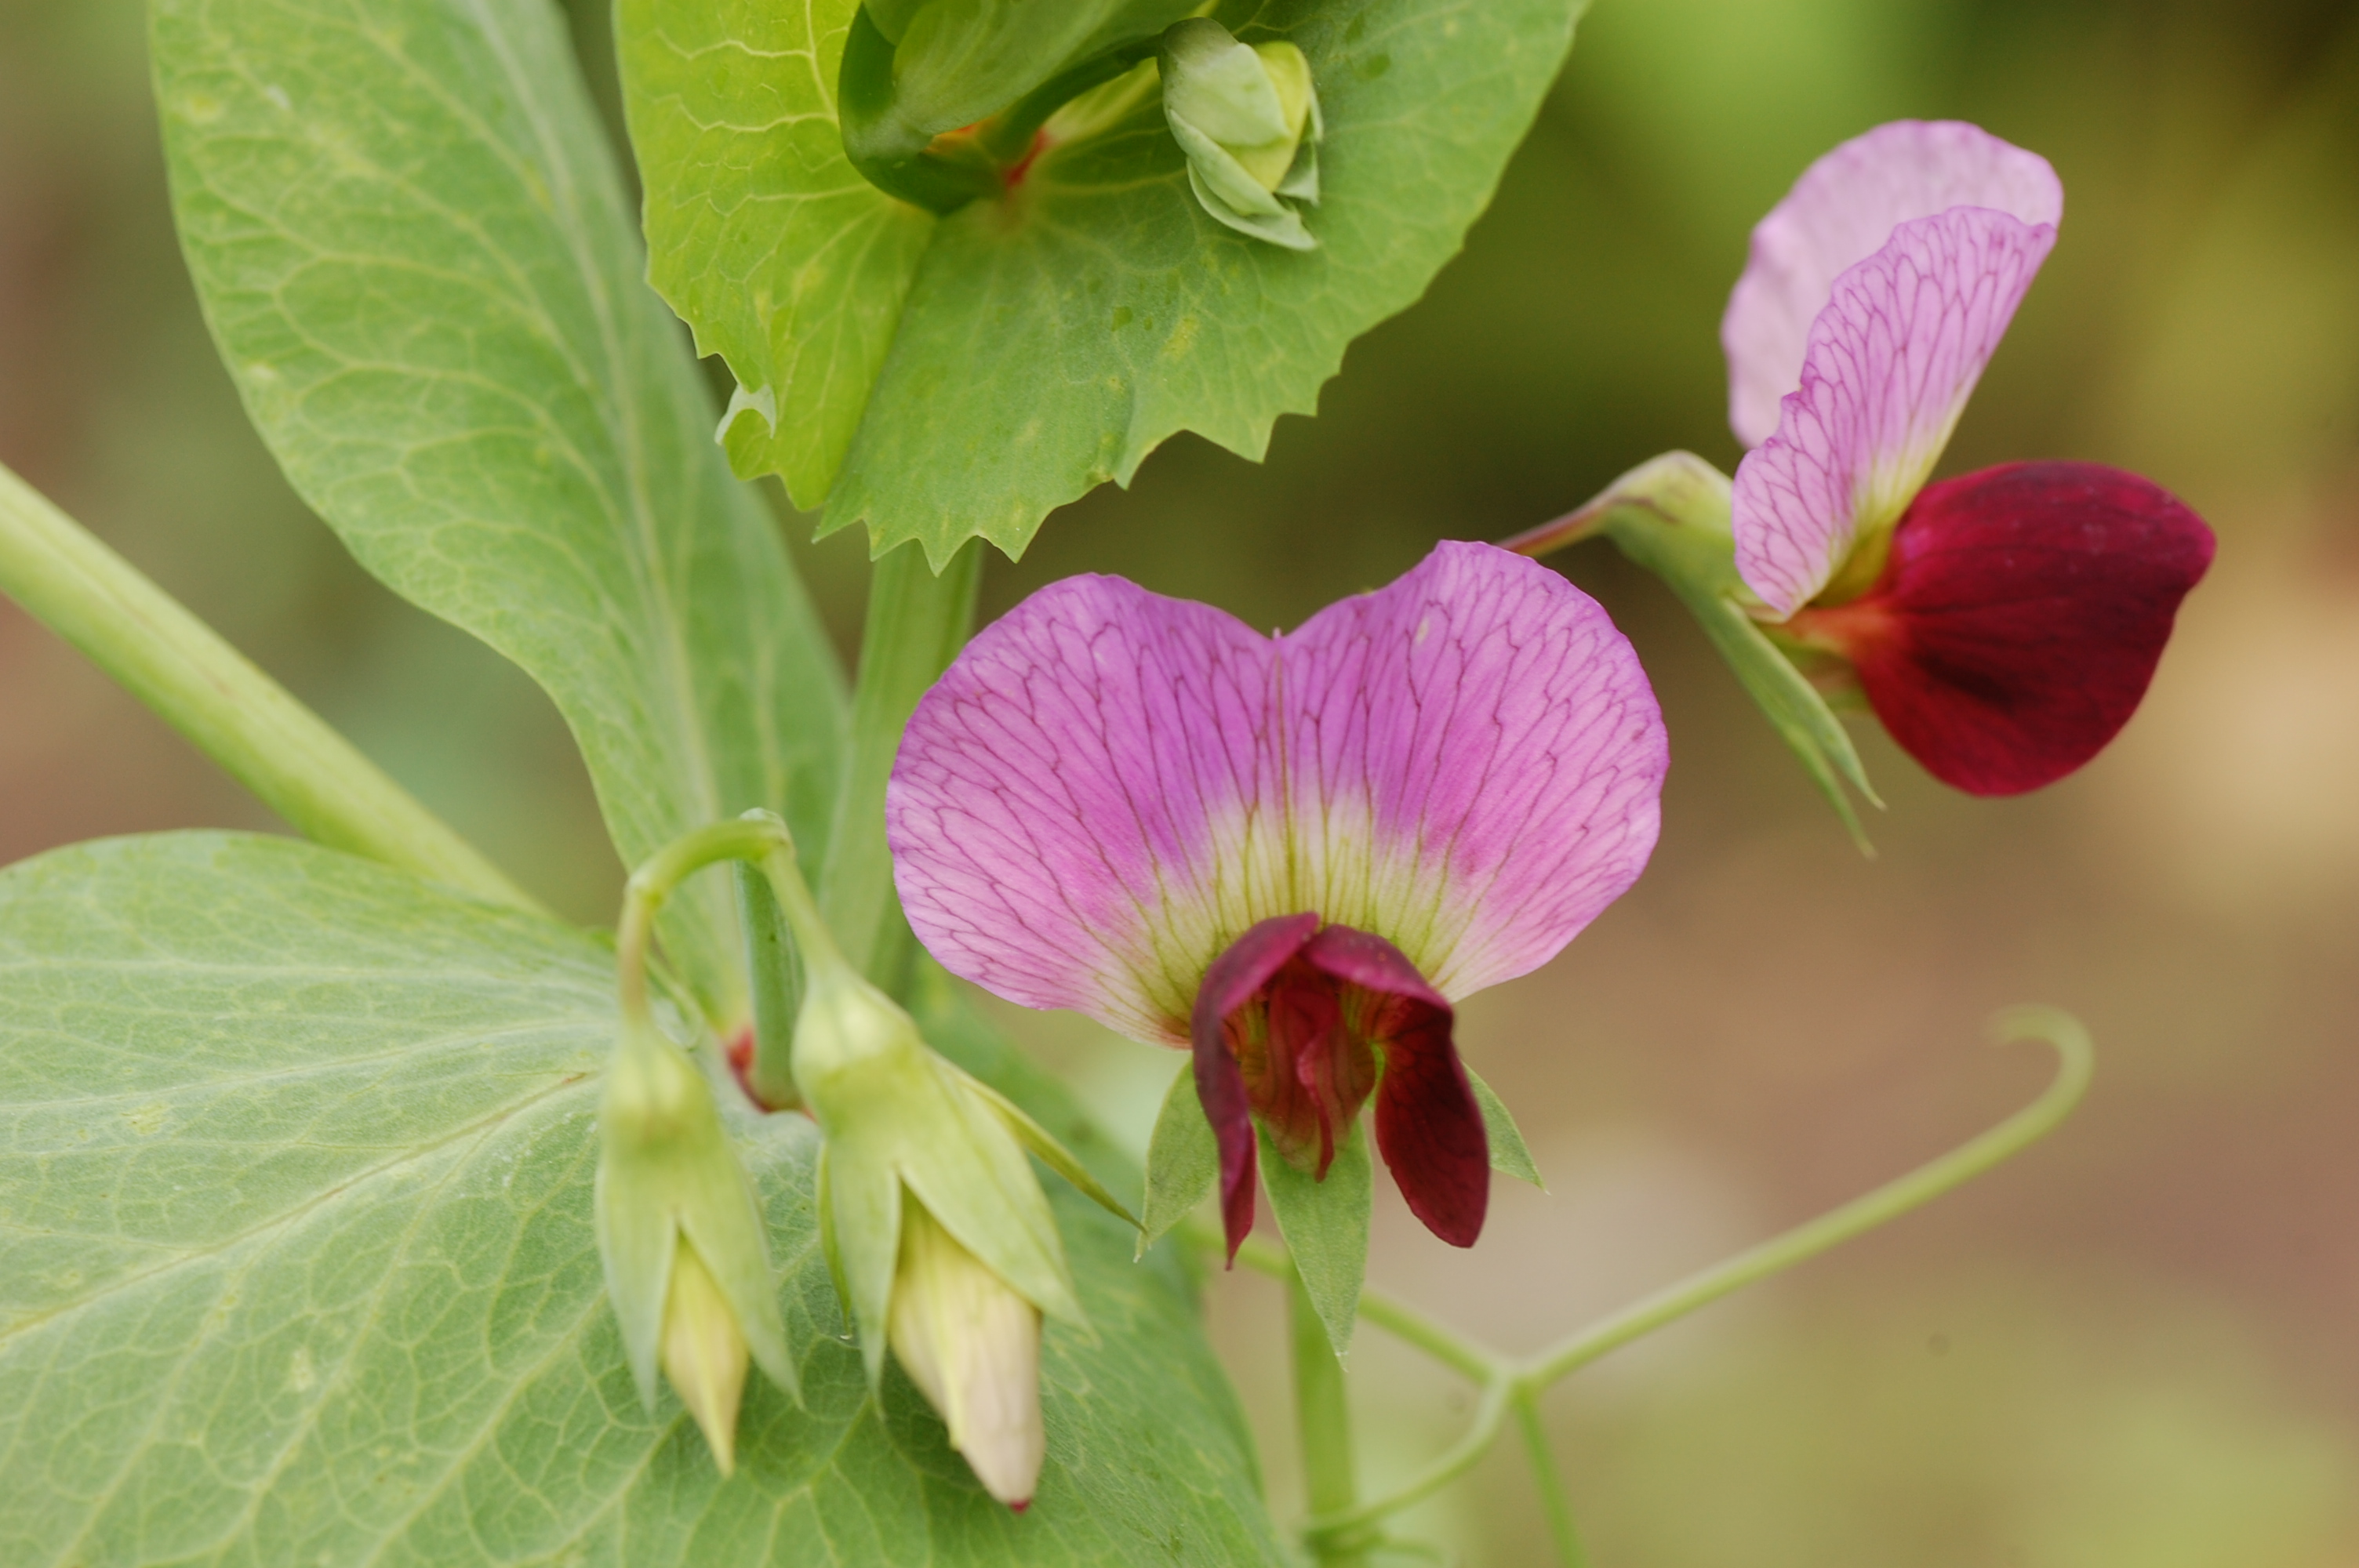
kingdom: Plantae
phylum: Tracheophyta
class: Magnoliopsida
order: Fabales
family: Fabaceae
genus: Lathyrus
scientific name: Lathyrus oleraceus
